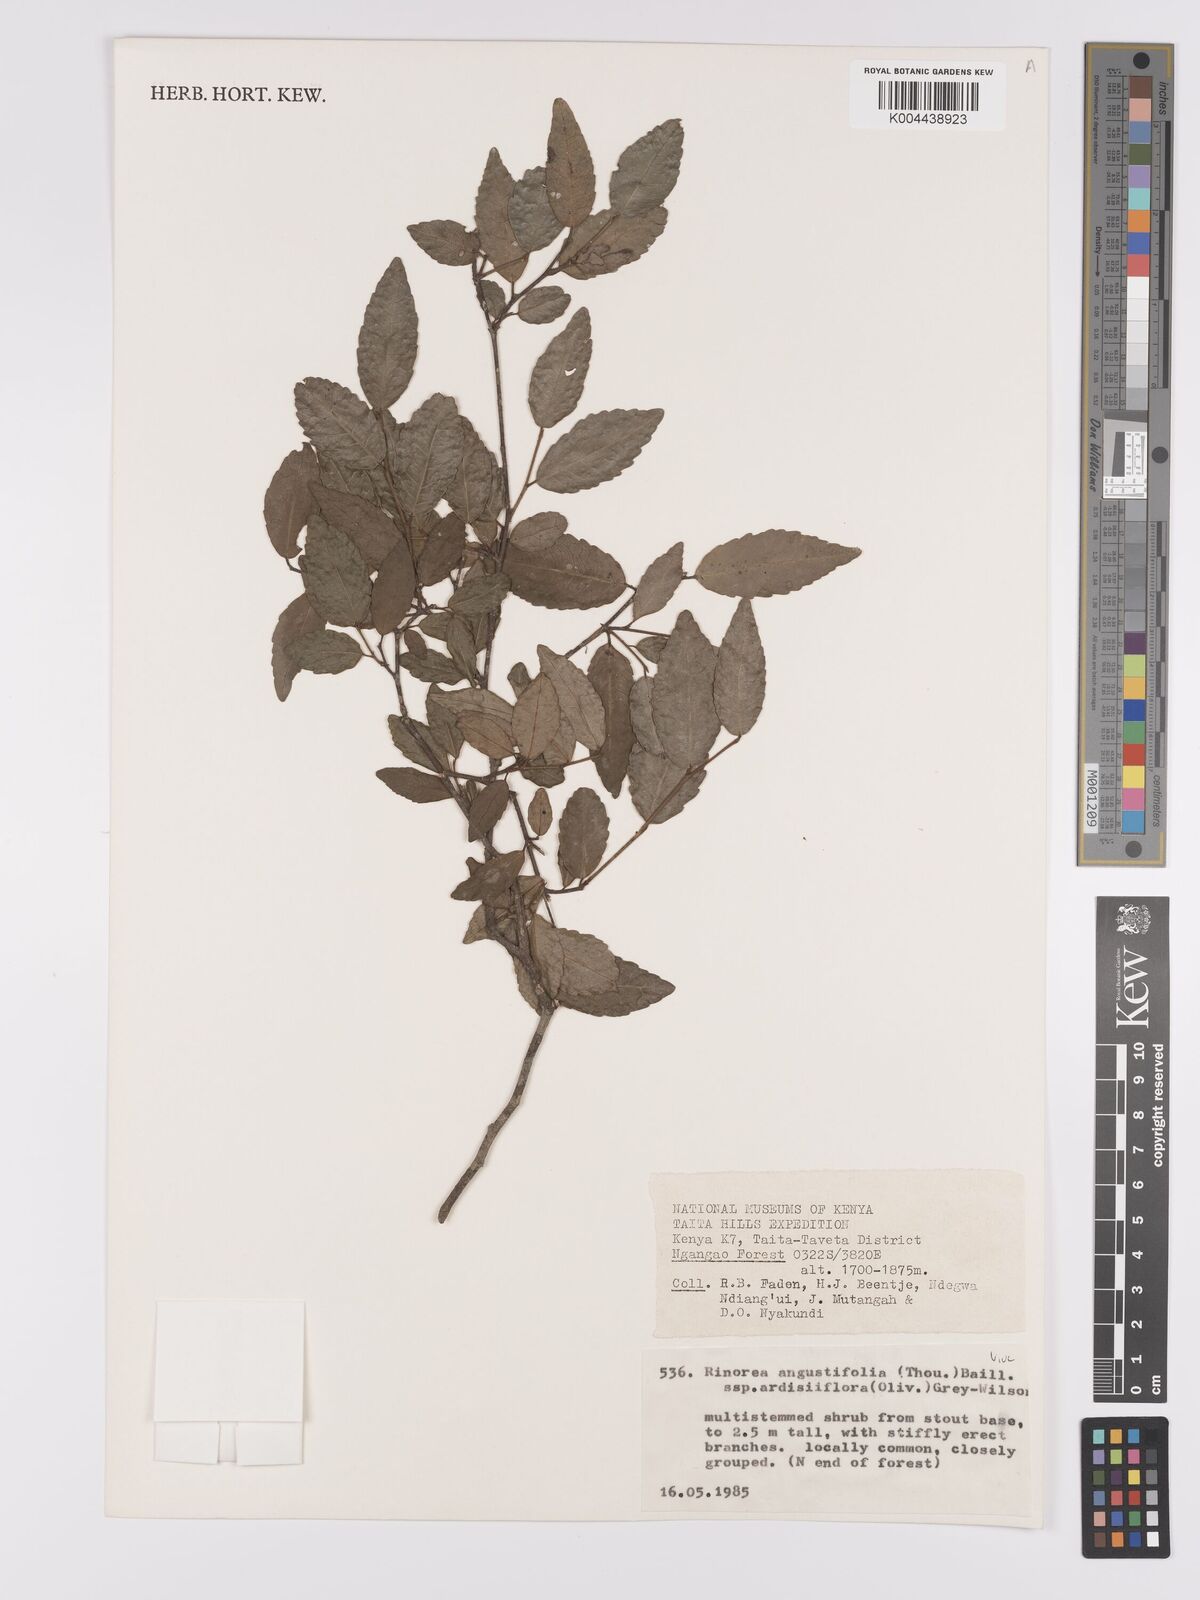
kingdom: Plantae
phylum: Tracheophyta
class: Magnoliopsida
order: Malpighiales
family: Violaceae
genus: Rinorea
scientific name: Rinorea angustifolia
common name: White violet-bush
